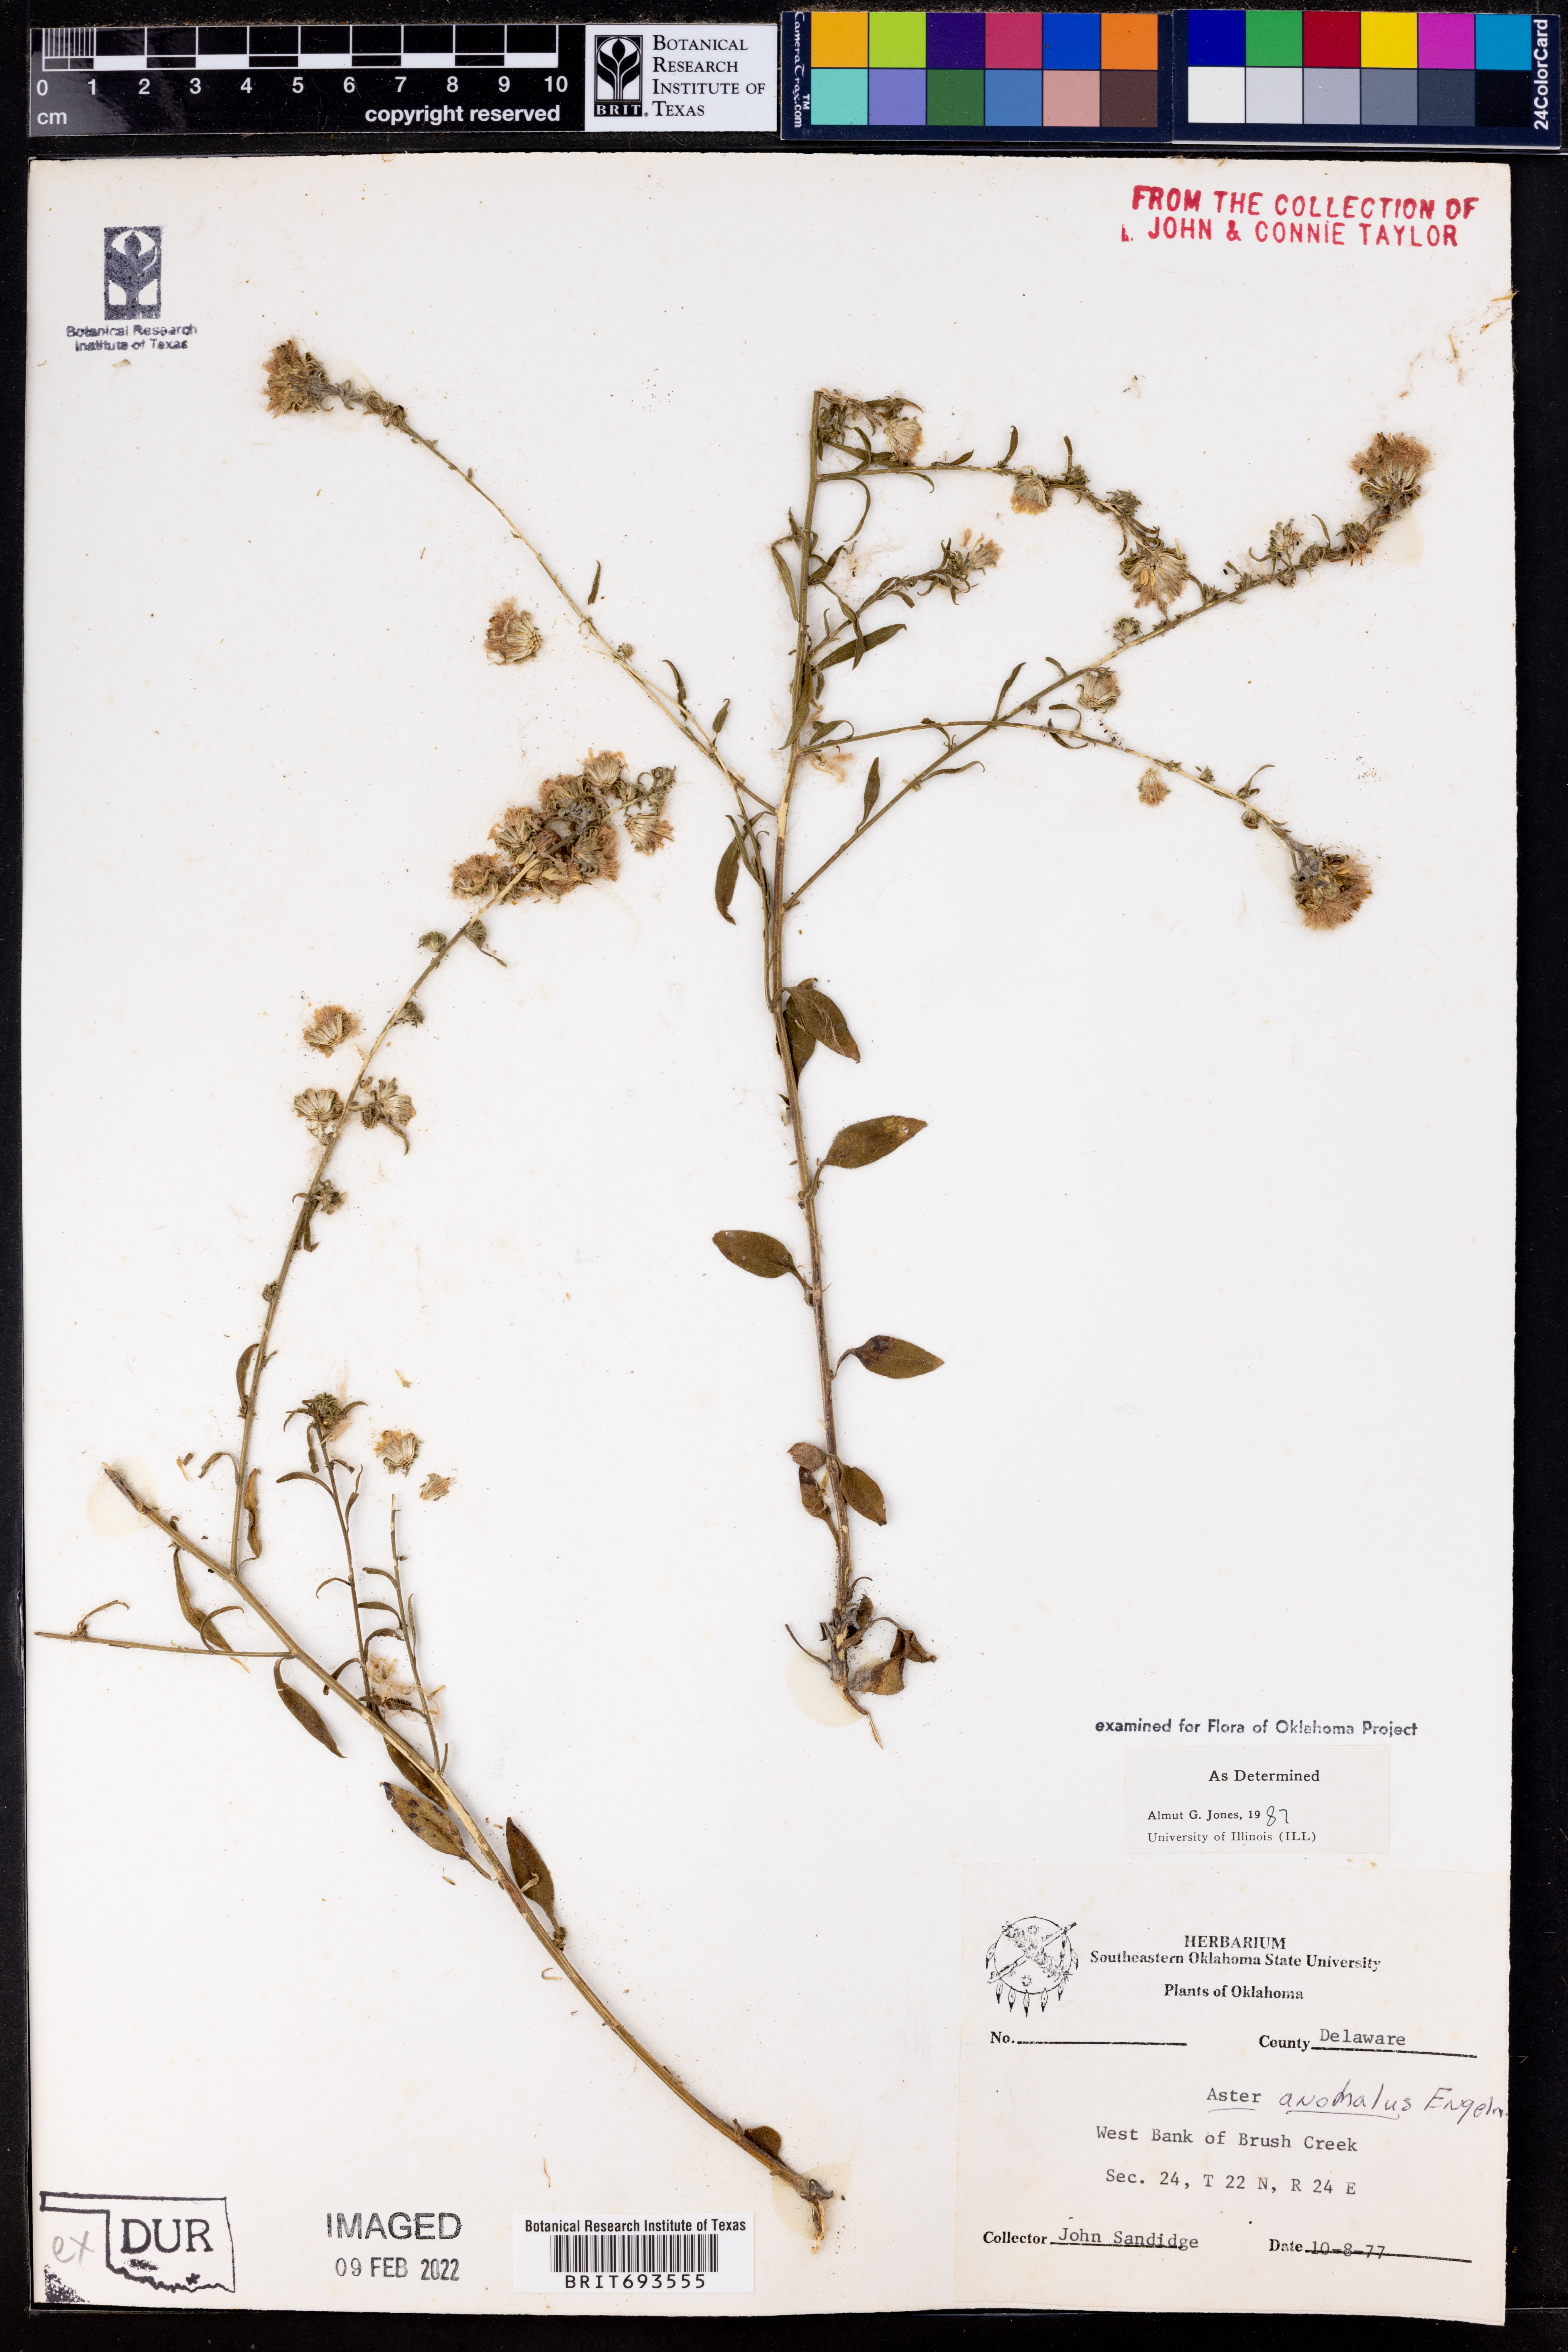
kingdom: Plantae
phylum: Tracheophyta
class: Magnoliopsida
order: Asterales
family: Asteraceae
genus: Symphyotrichum
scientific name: Symphyotrichum anomalum
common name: Many-ray aster
